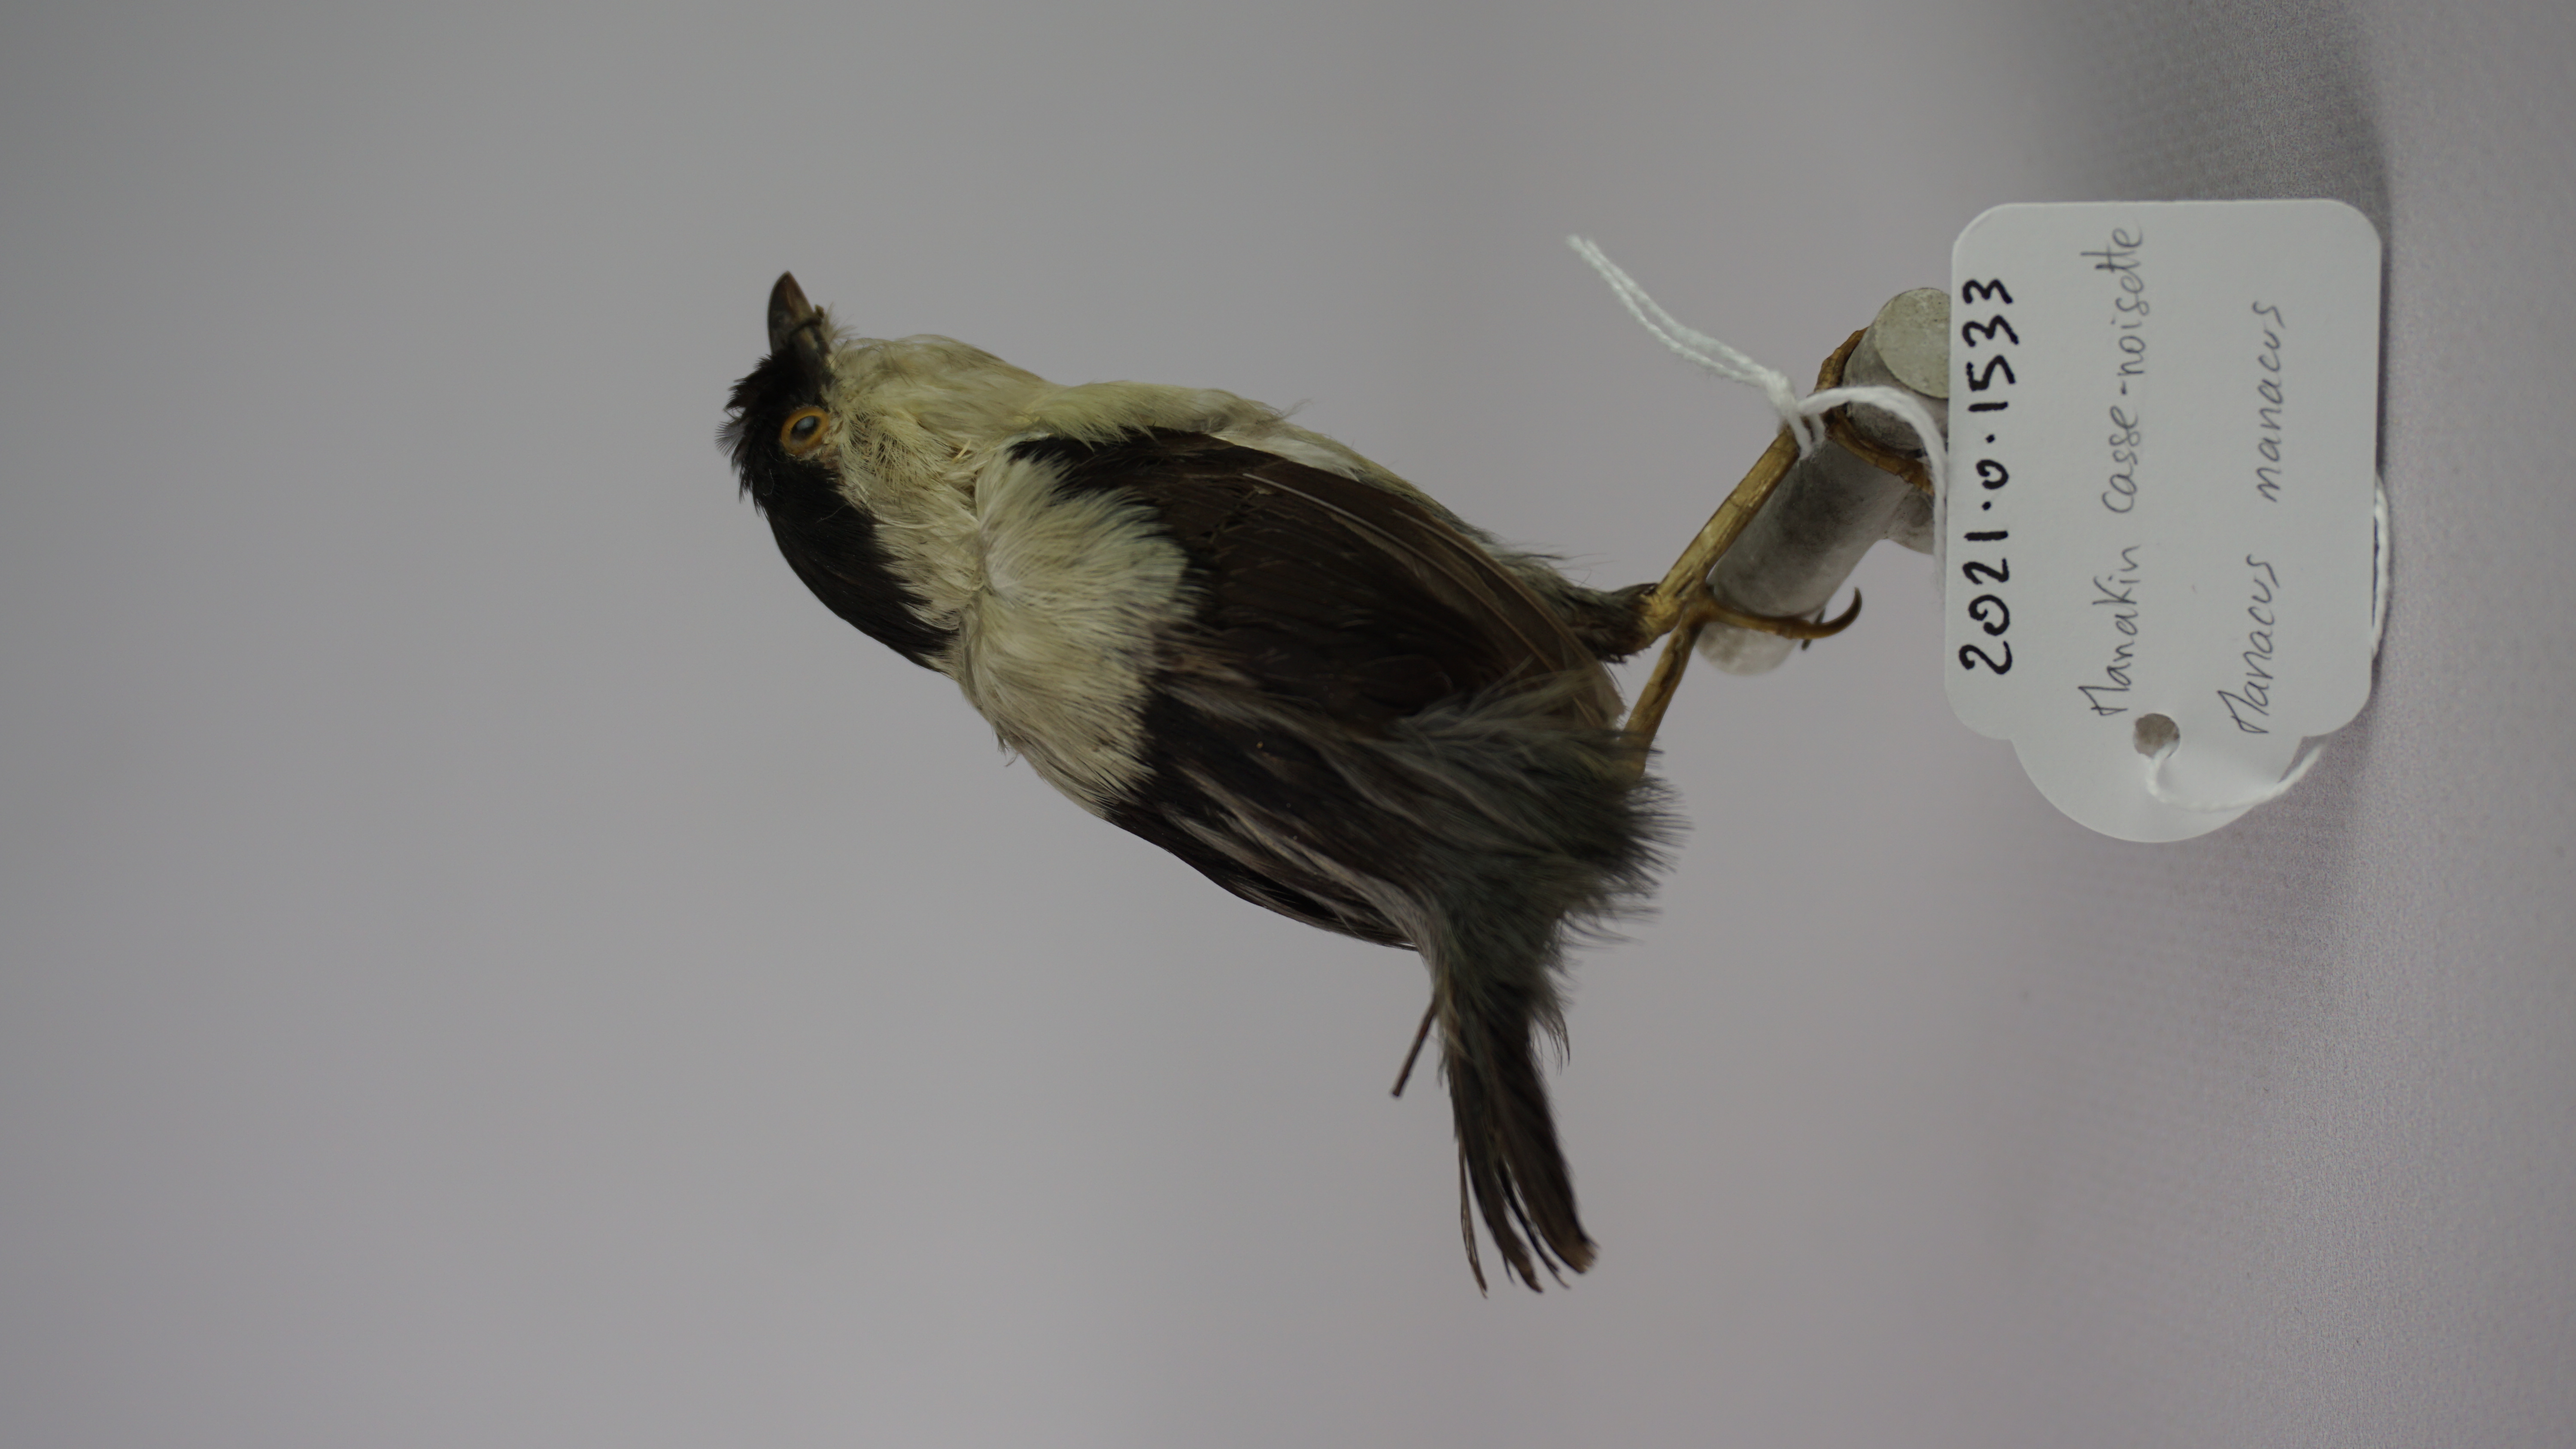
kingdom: Animalia
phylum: Chordata
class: Aves
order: Passeriformes
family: Pipridae
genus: Manacus
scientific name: Manacus manacus
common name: White-bearded manakin
